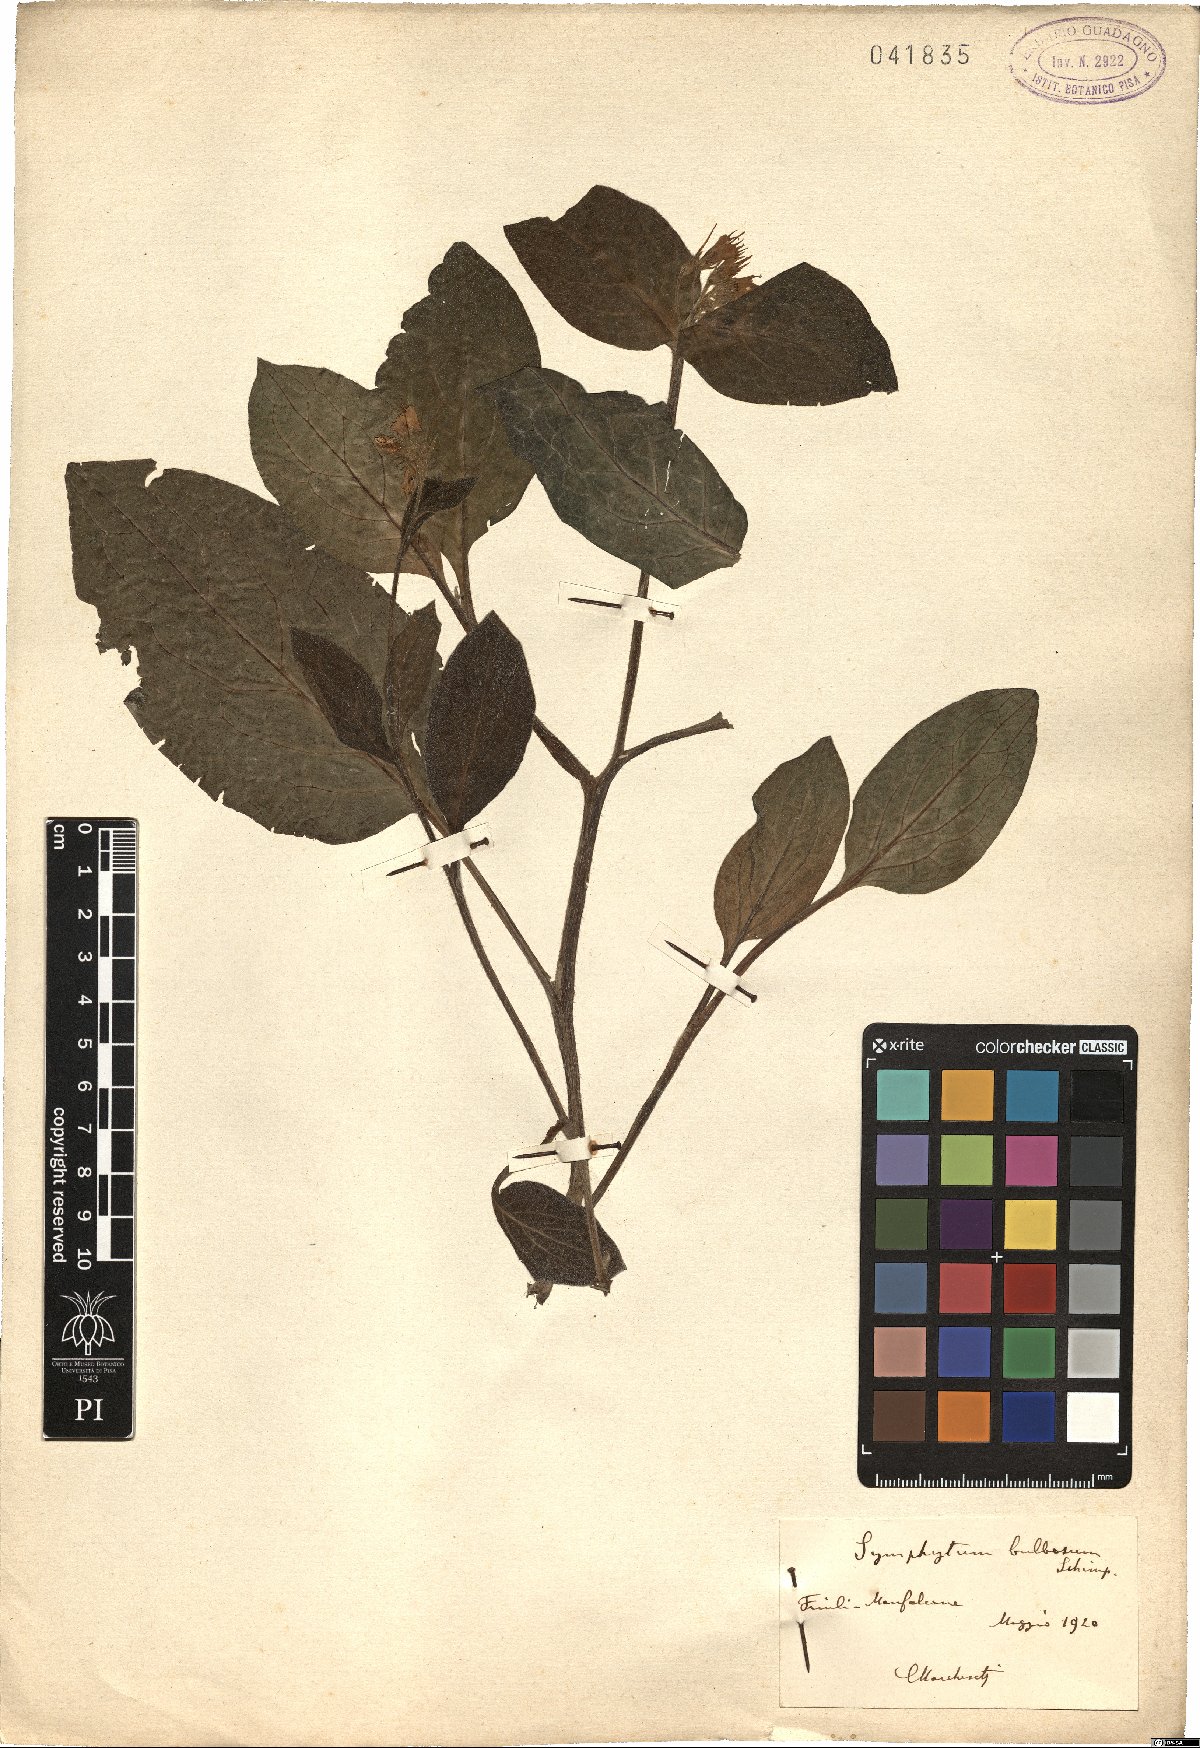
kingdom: Plantae
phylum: Tracheophyta
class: Magnoliopsida
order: Boraginales
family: Boraginaceae
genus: Symphytum
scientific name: Symphytum bulbosum
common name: Bulbous comfrey
